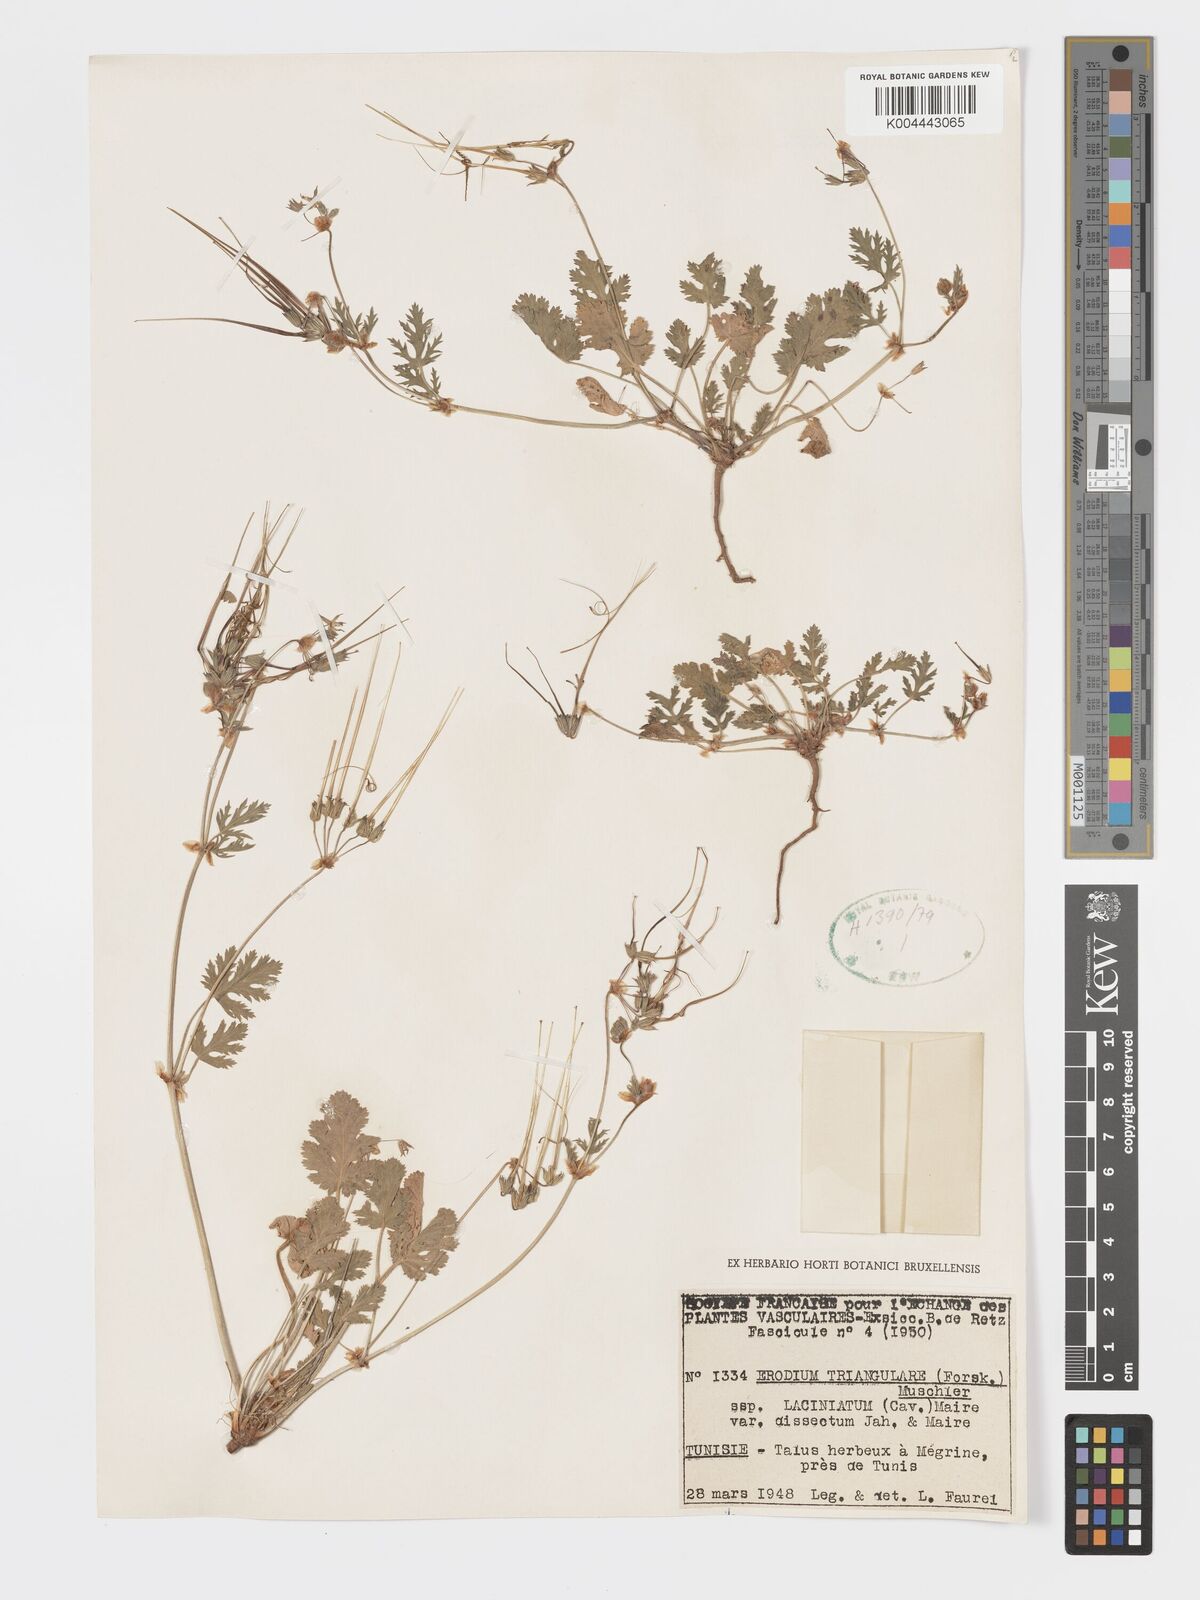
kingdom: Plantae
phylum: Tracheophyta
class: Magnoliopsida
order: Geraniales
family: Geraniaceae
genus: Erodium
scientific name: Erodium laciniatum
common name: Cutleaf stork's bill
